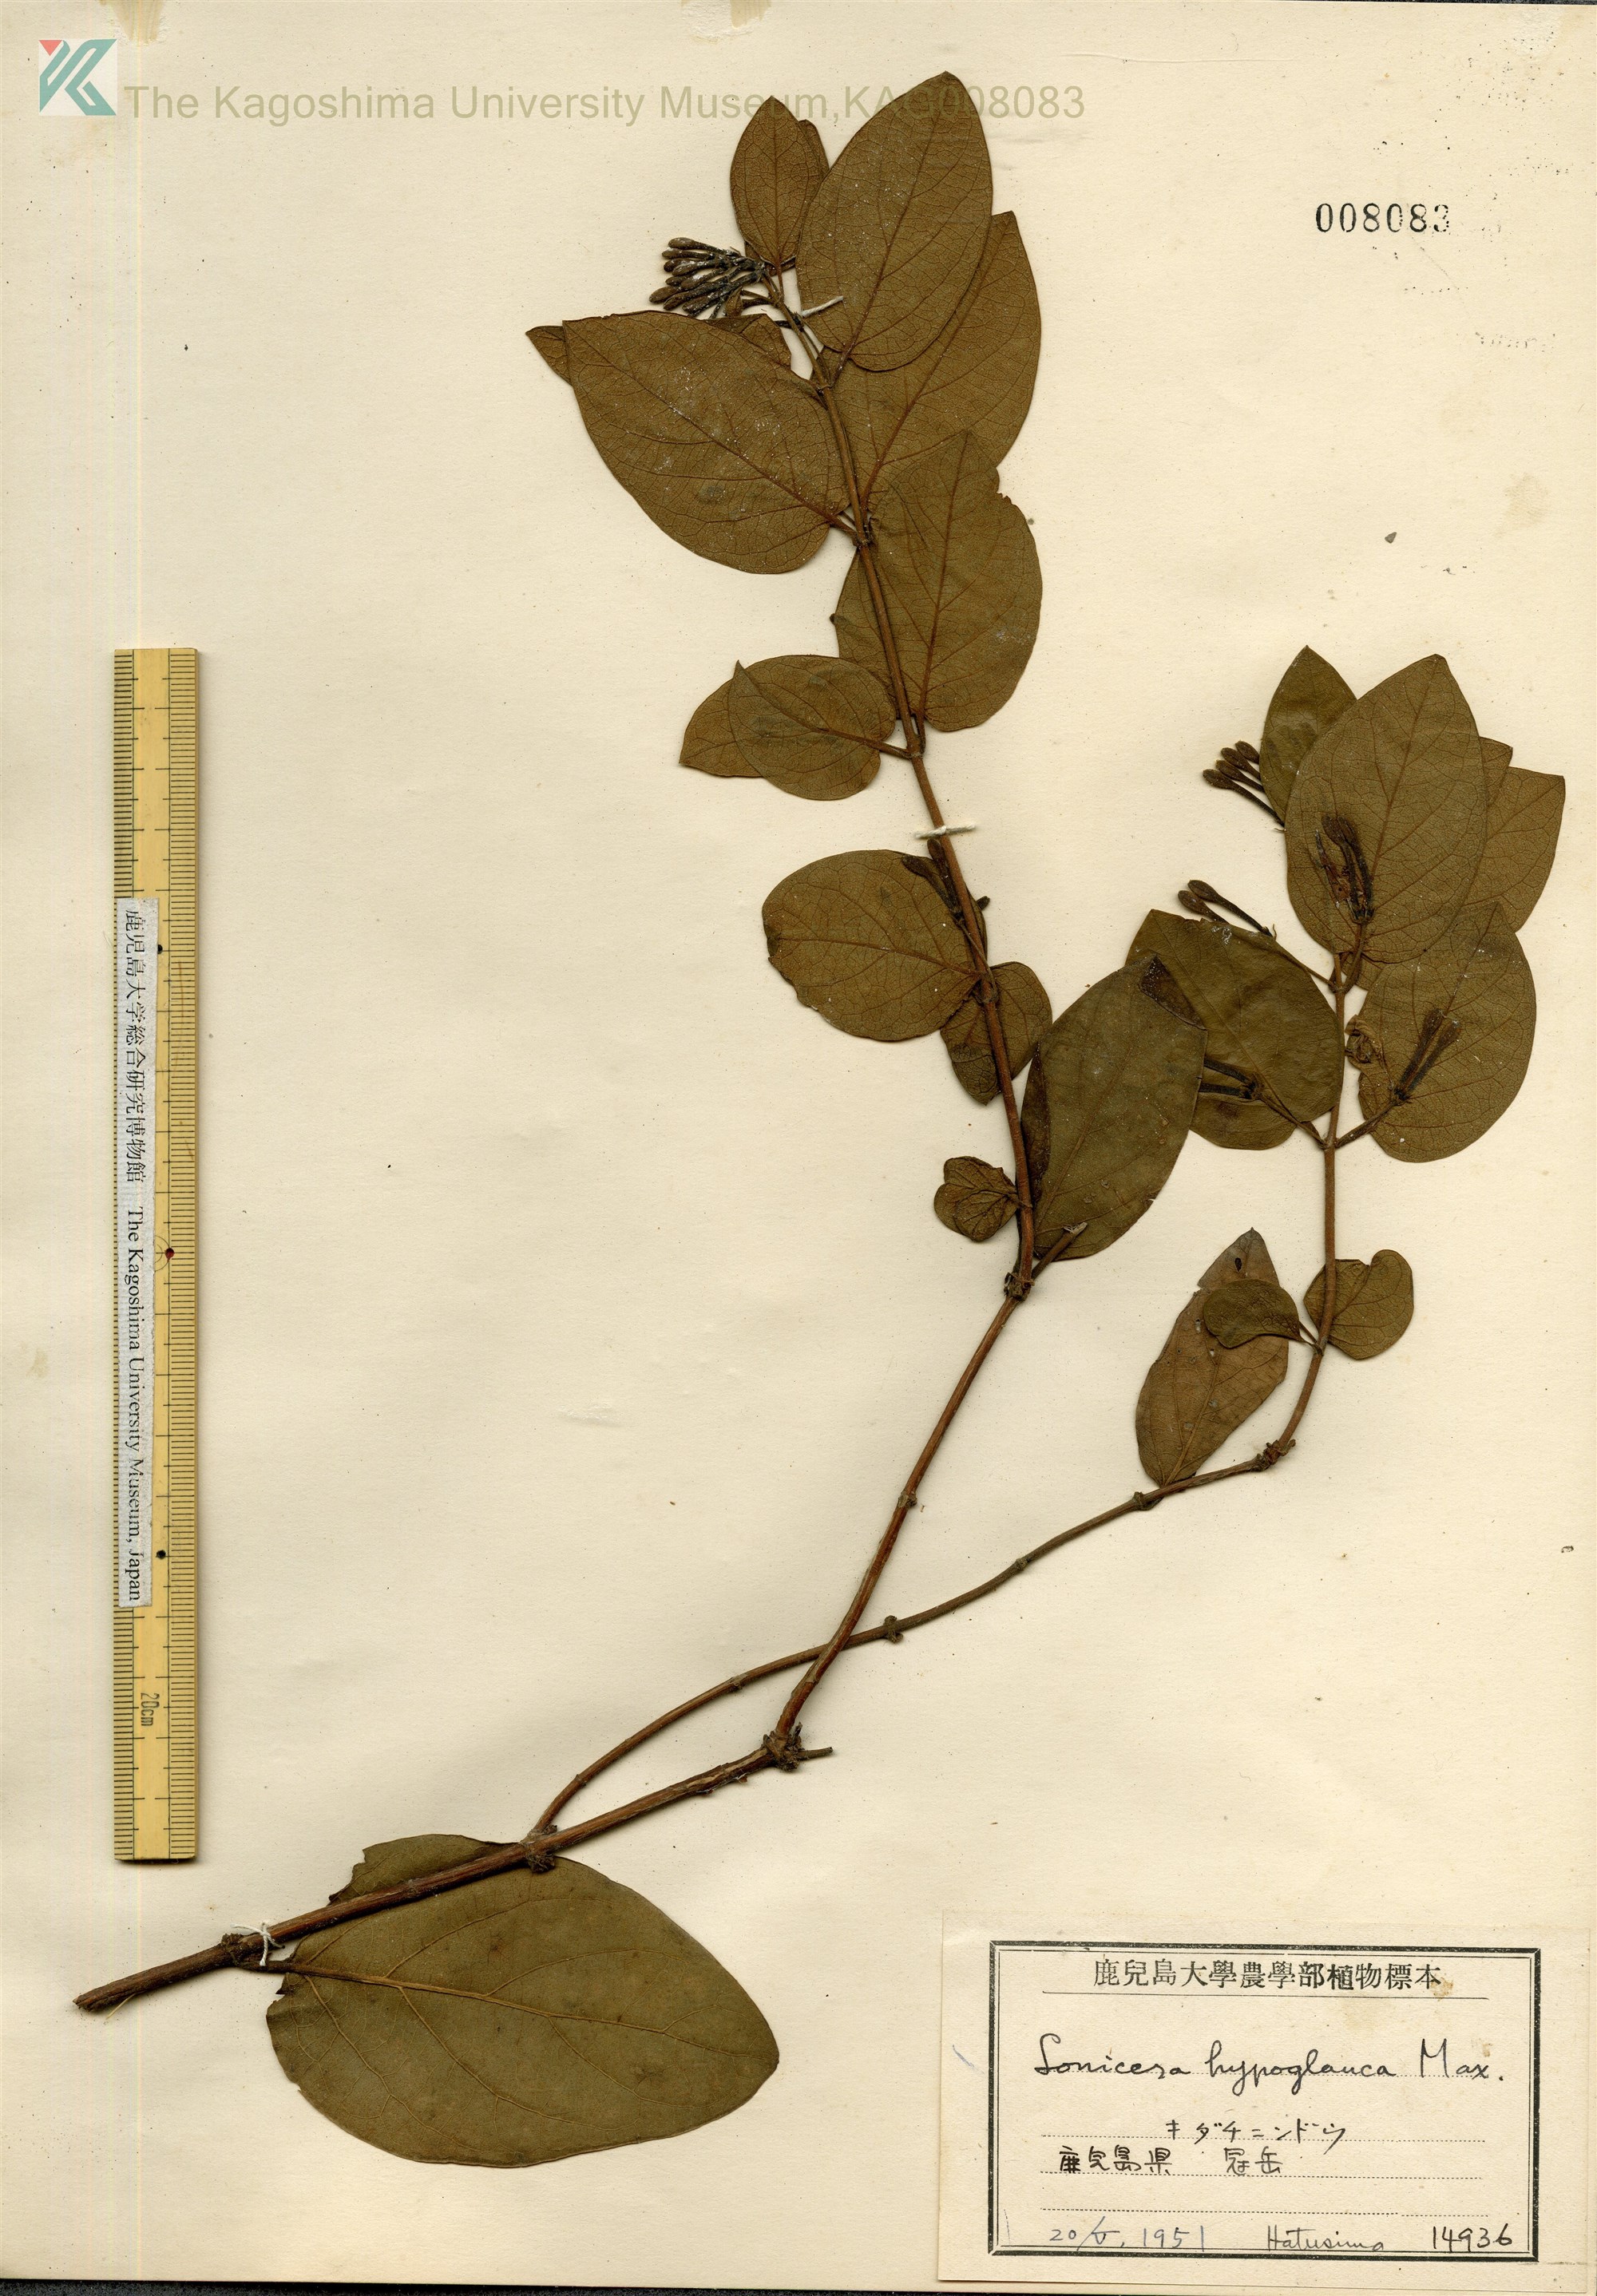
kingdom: Plantae
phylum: Tracheophyta
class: Magnoliopsida
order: Dipsacales
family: Caprifoliaceae
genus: Lonicera
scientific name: Lonicera hypoglauca
